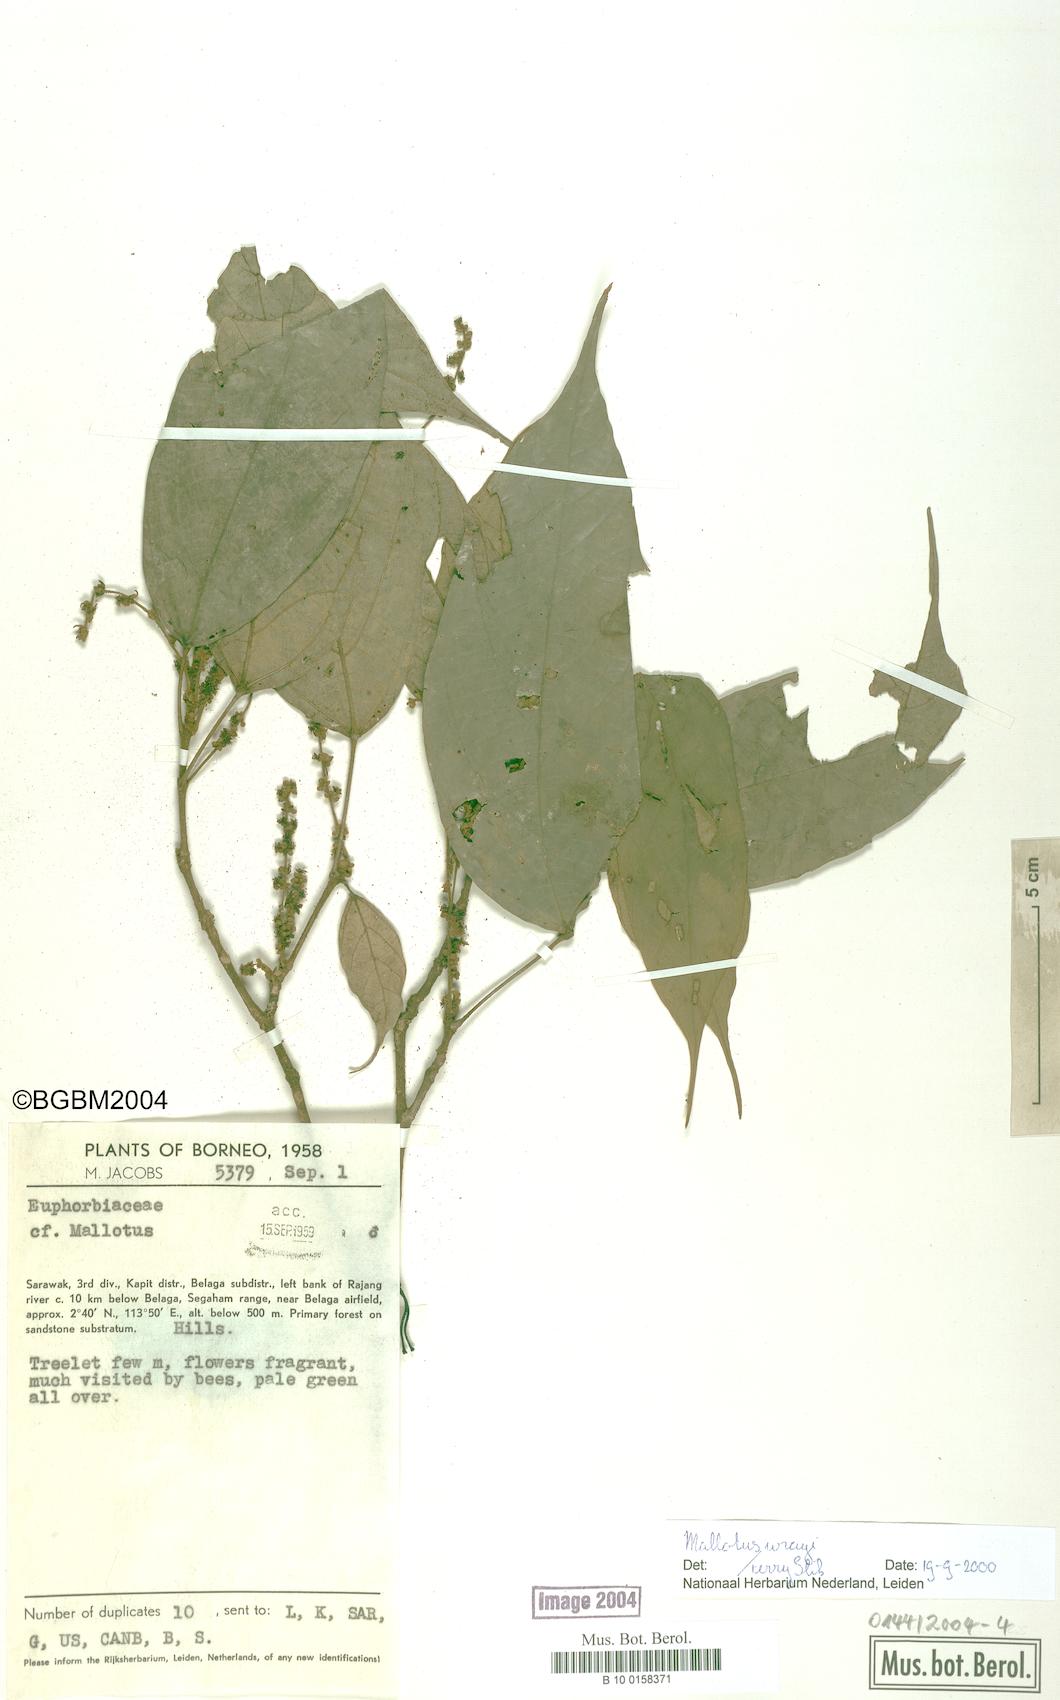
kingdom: Plantae
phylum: Tracheophyta
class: Magnoliopsida
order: Malpighiales
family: Euphorbiaceae
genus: Mallotus
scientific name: Mallotus wrayi
